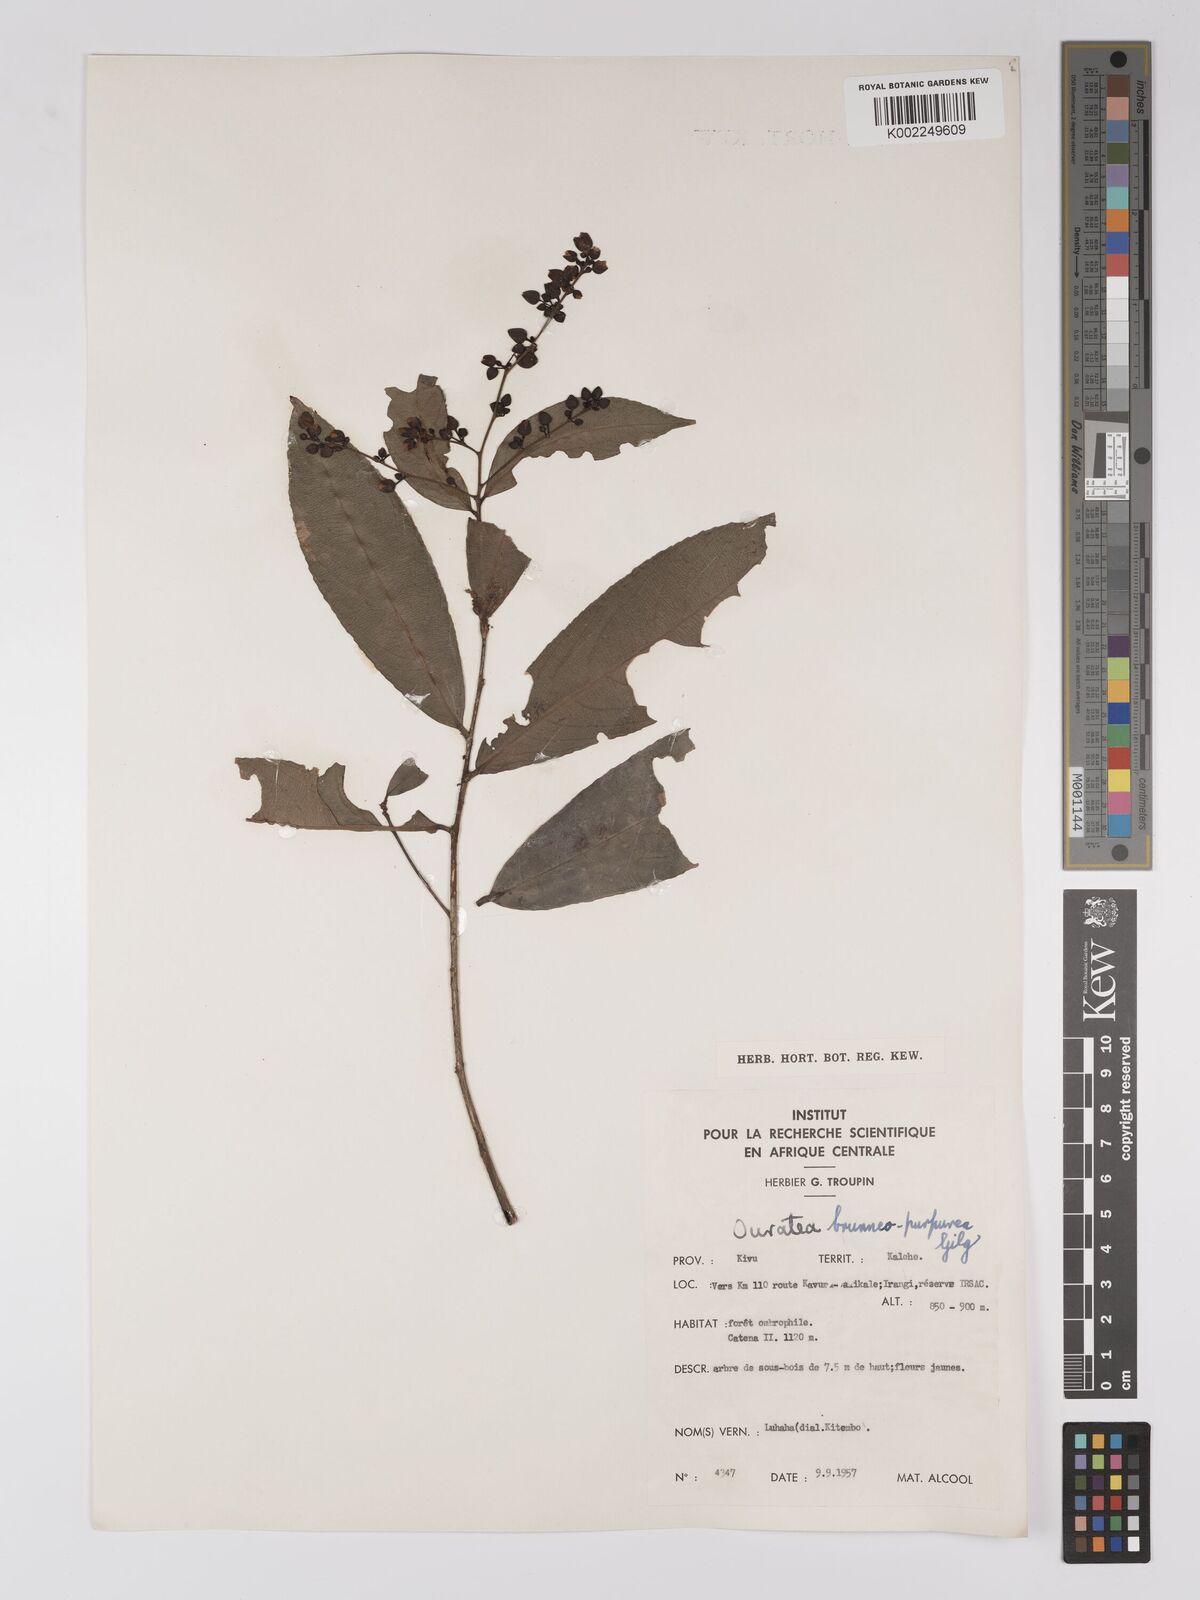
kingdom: Plantae
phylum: Tracheophyta
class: Magnoliopsida
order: Malpighiales
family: Ochnaceae
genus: Campylospermum
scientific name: Campylospermum reticulatum
